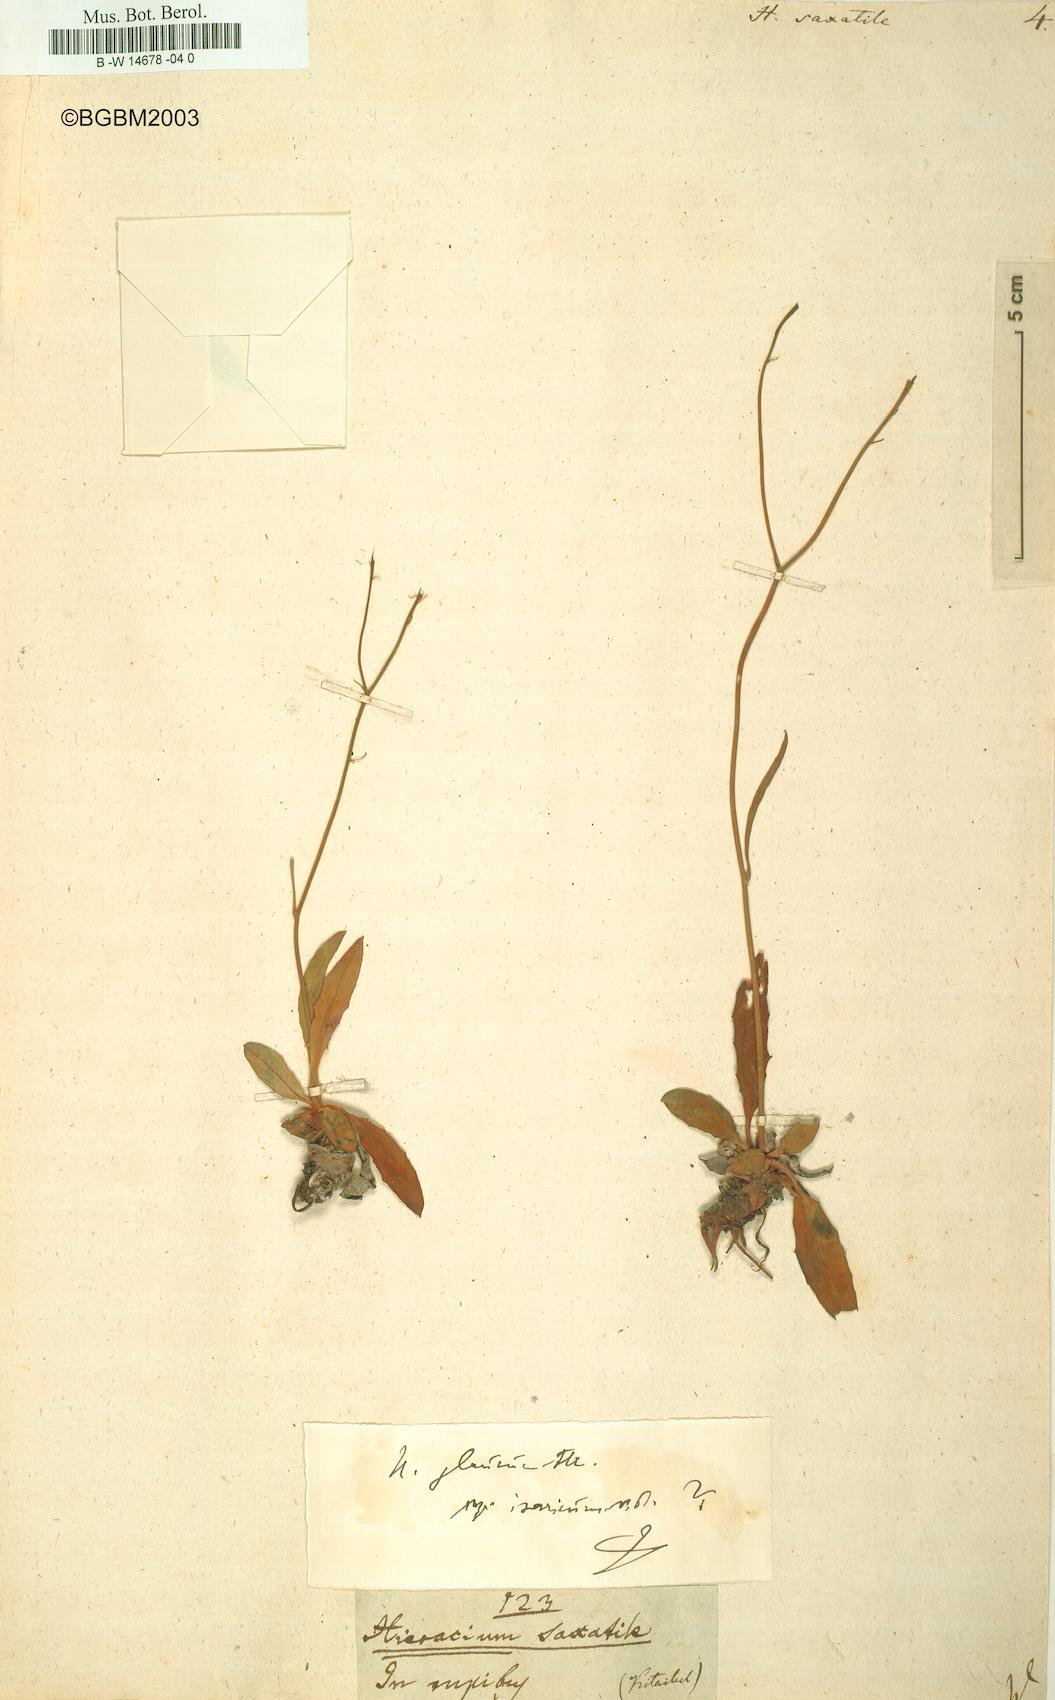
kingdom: Plantae
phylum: Tracheophyta
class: Magnoliopsida
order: Asterales
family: Asteraceae
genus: Hieracium
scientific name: Hieracium saxatile
